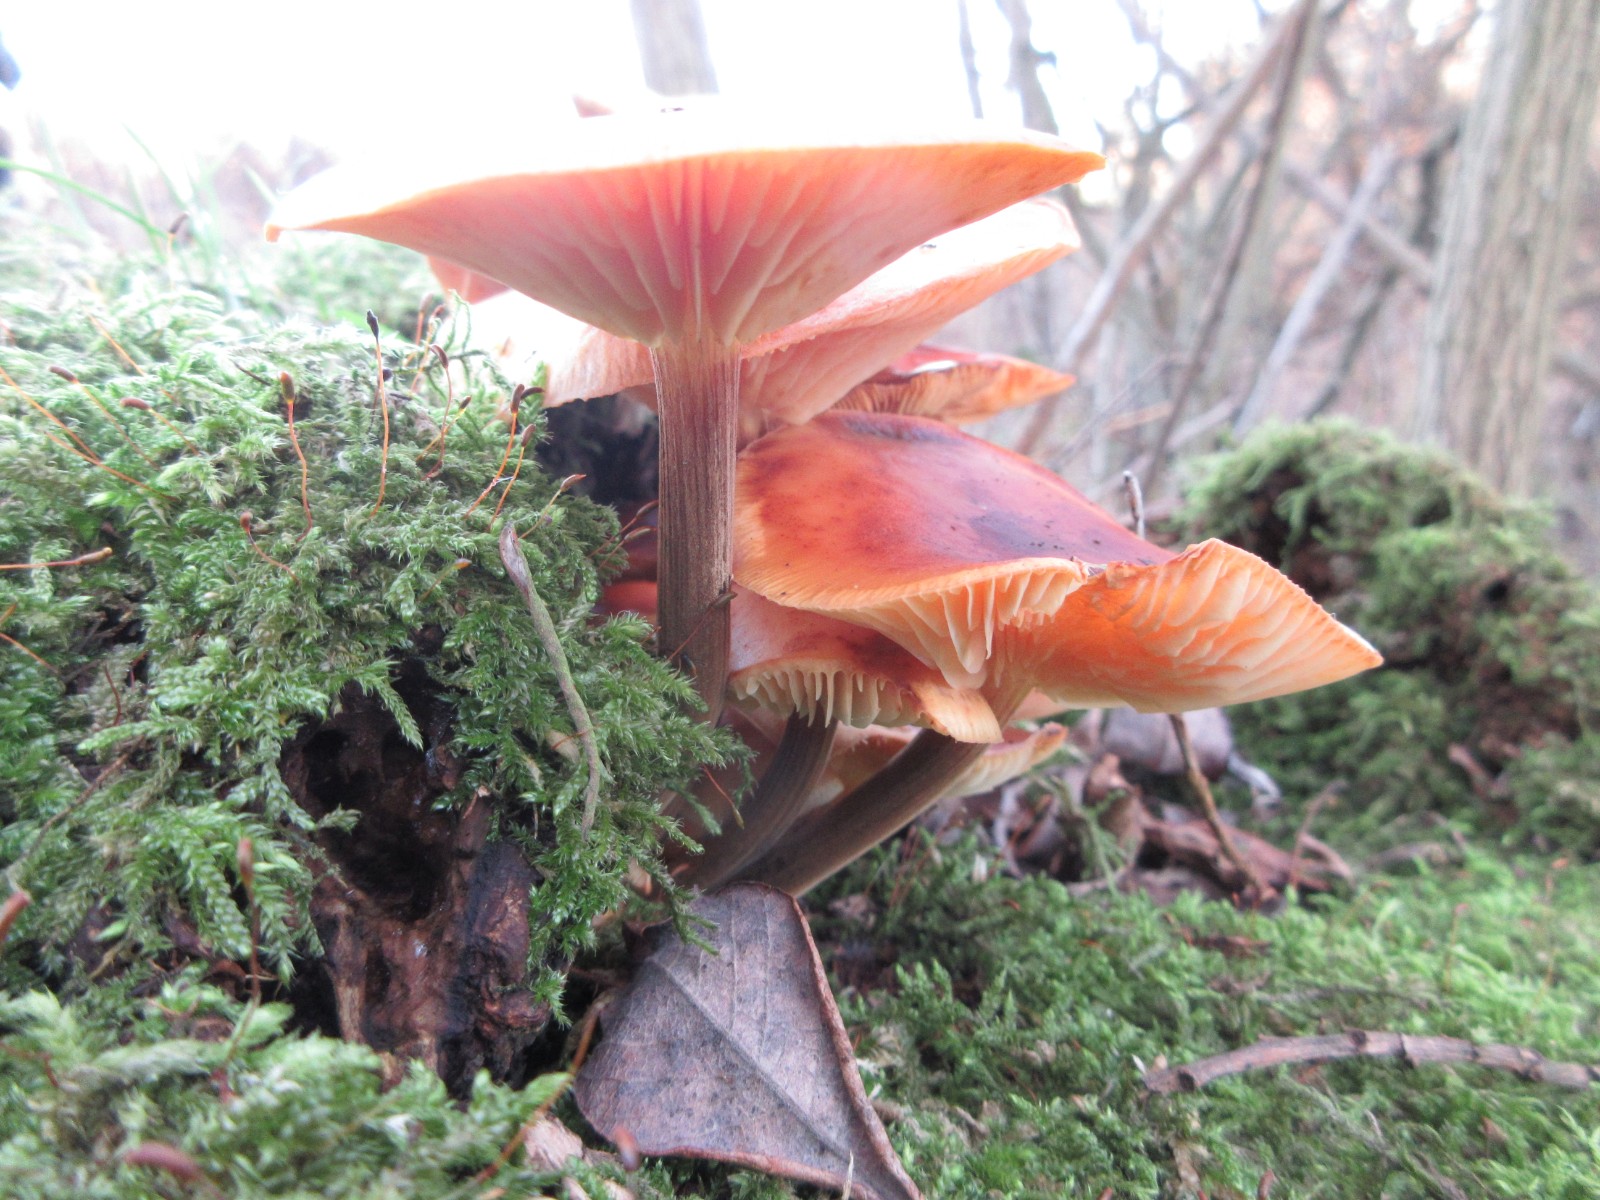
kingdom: Fungi
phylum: Basidiomycota
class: Agaricomycetes
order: Agaricales
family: Physalacriaceae
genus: Flammulina
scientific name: Flammulina elastica
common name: pile-fløjlsfod
